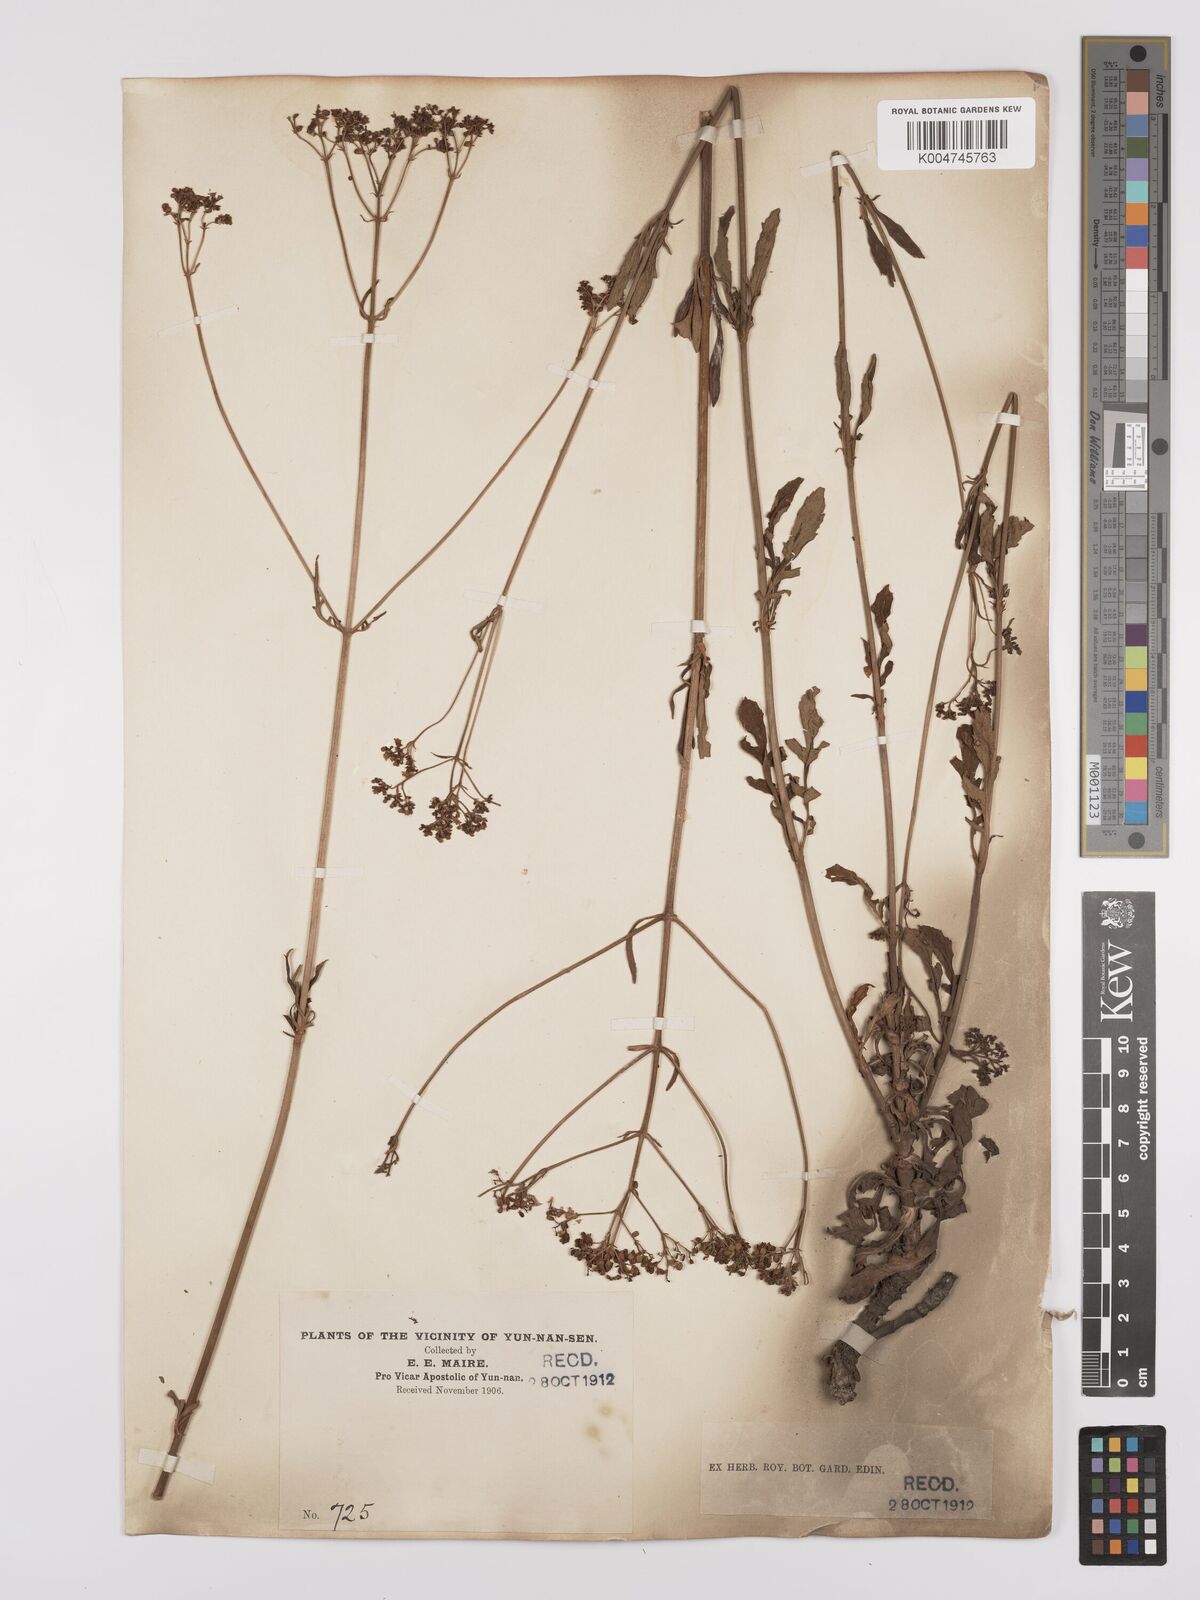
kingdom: Plantae
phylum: Tracheophyta
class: Magnoliopsida
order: Dipsacales
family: Caprifoliaceae
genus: Patrinia
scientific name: Patrinia
